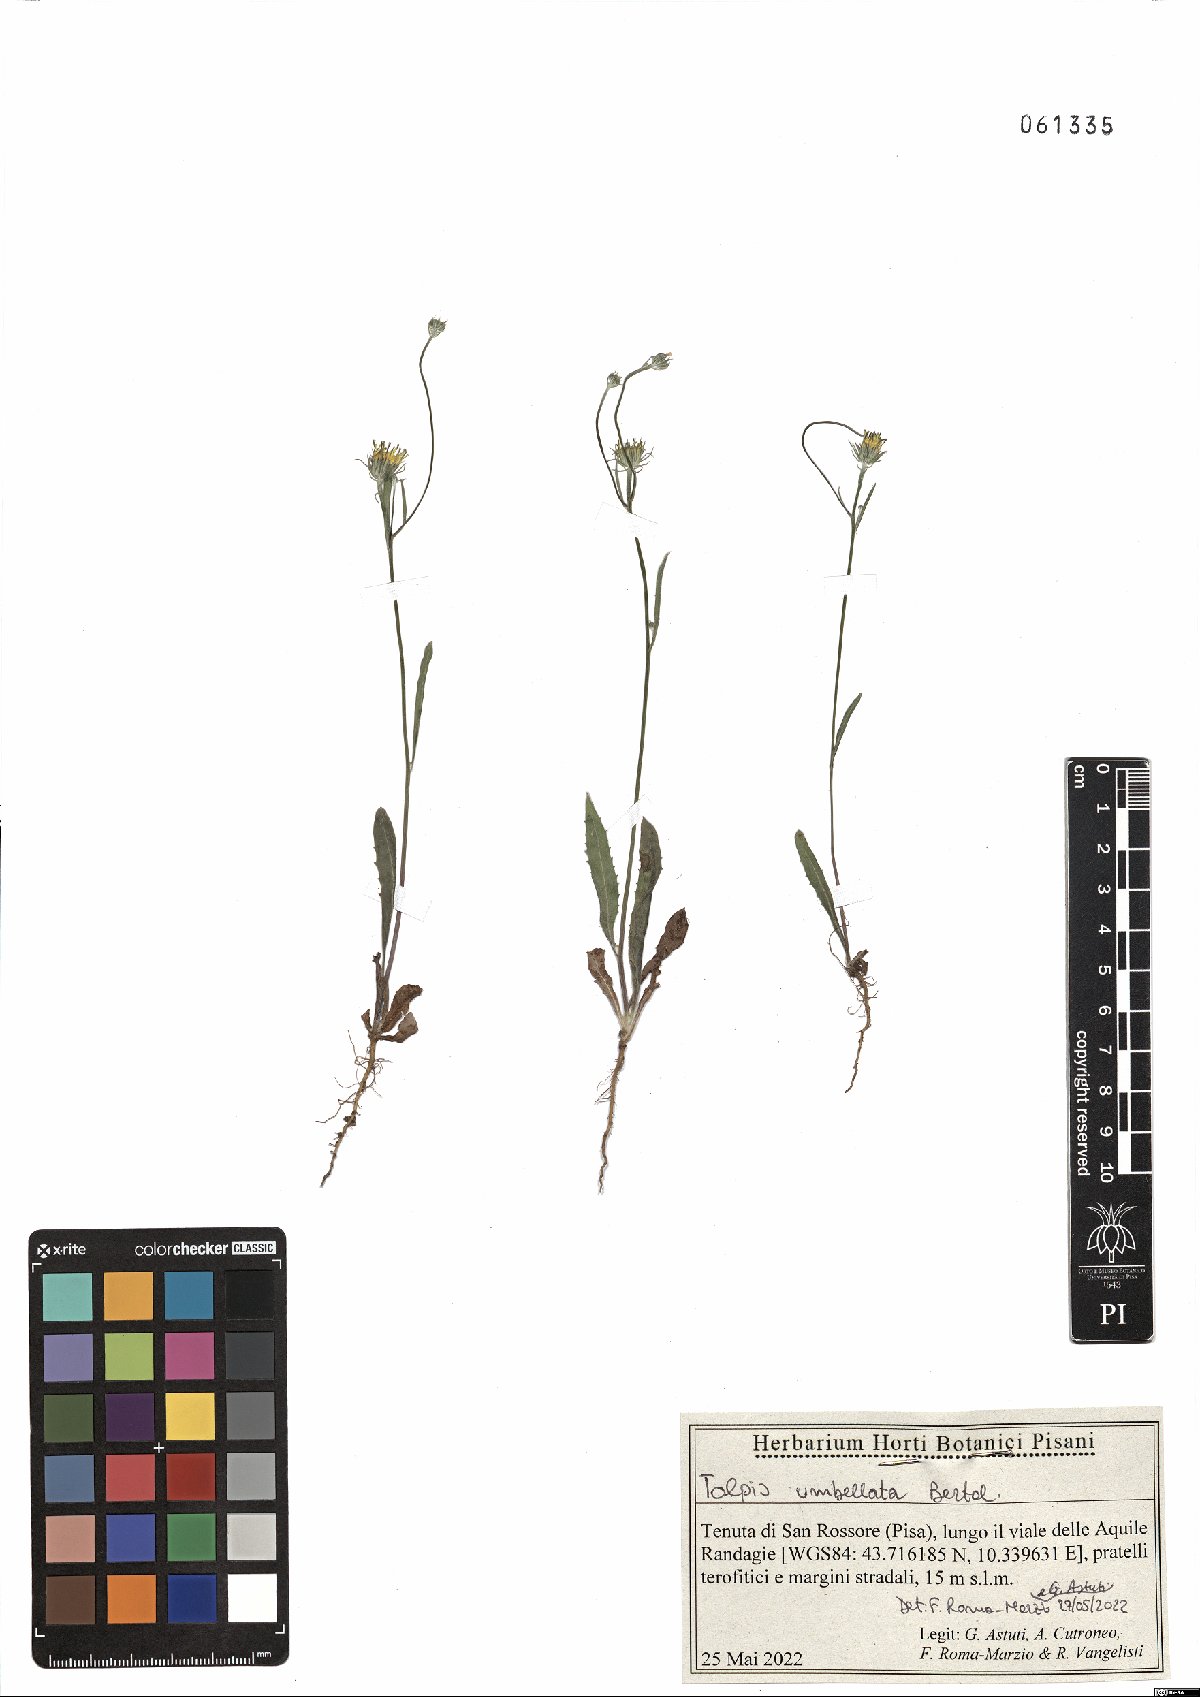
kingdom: Plantae
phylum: Tracheophyta
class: Magnoliopsida
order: Asterales
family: Asteraceae
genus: Tolpis
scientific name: Tolpis umbellata
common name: Yellow hawkweed
